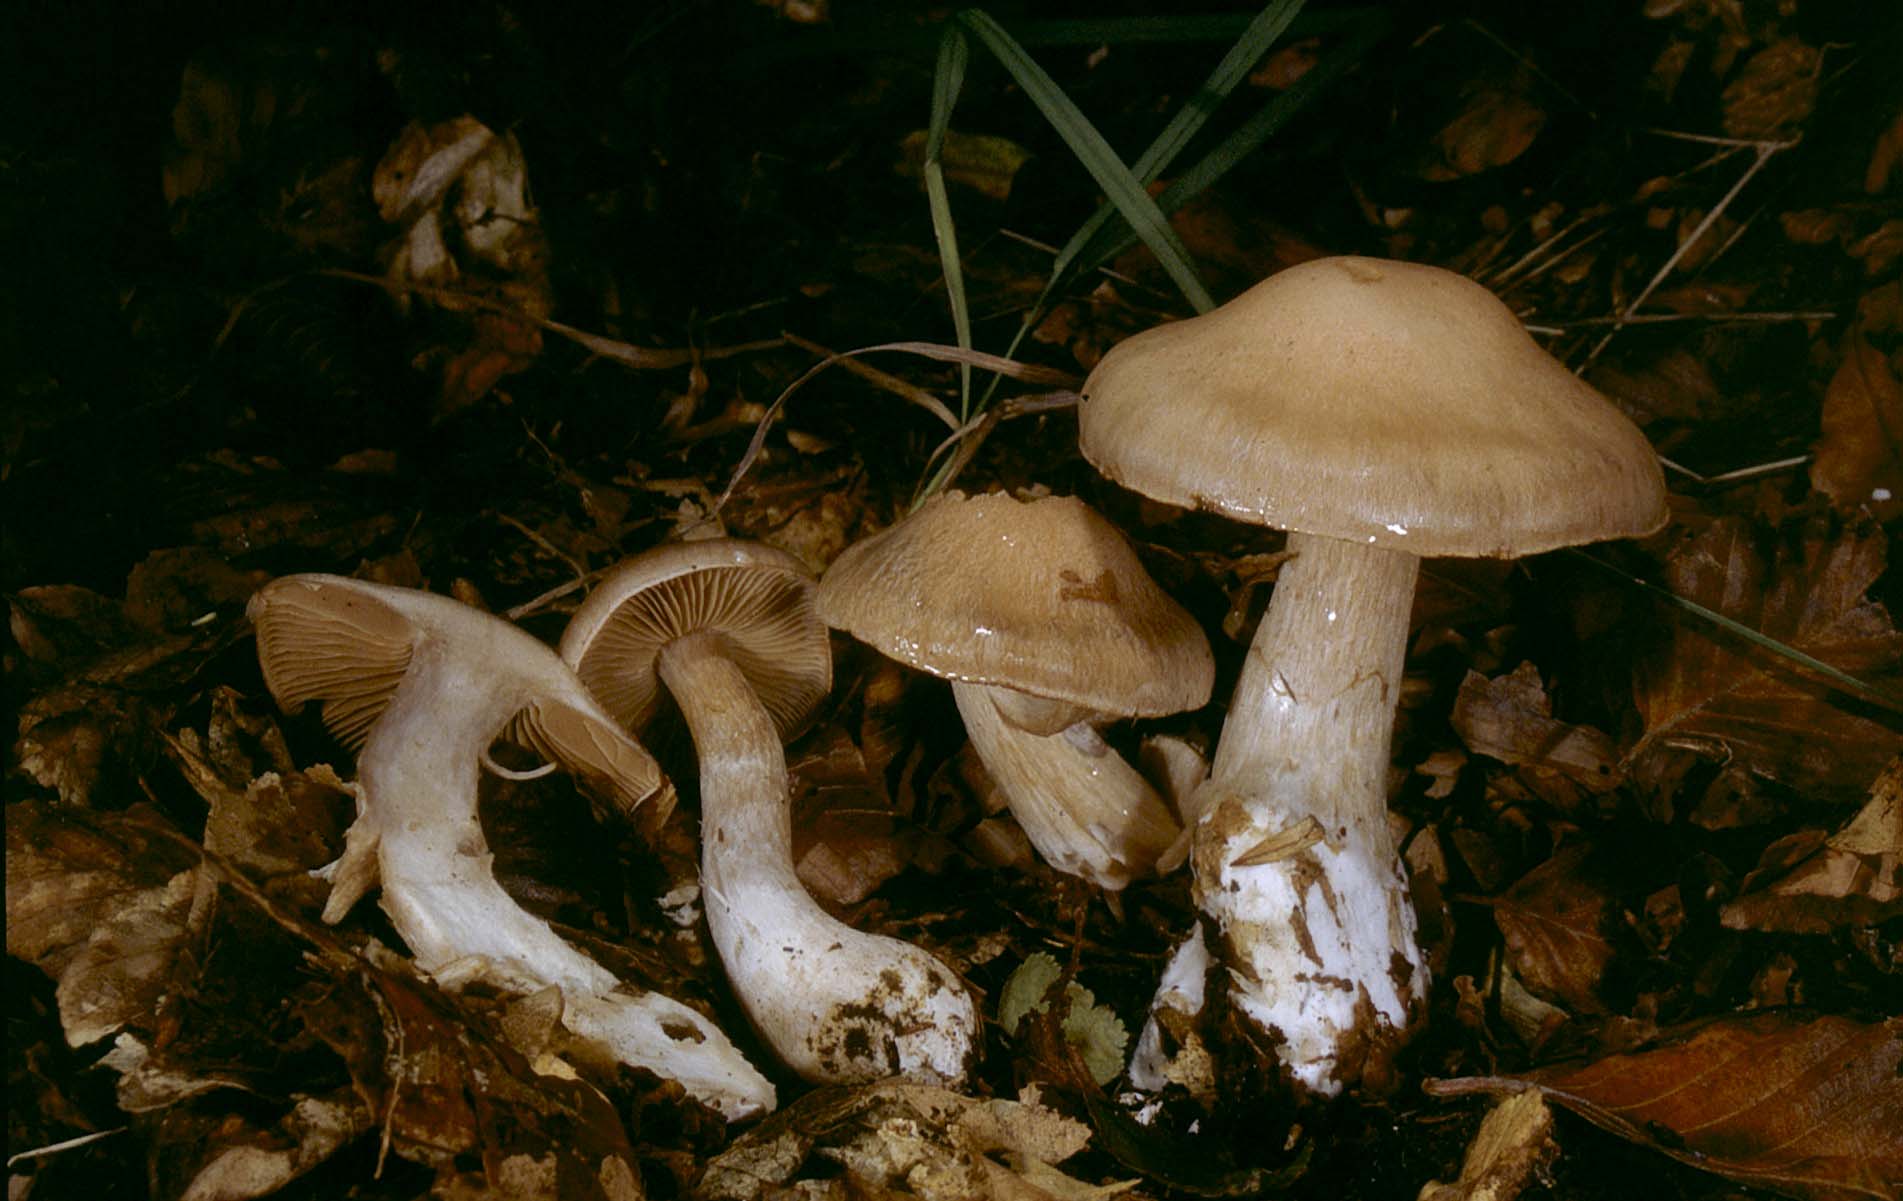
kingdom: Fungi
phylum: Basidiomycota
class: Agaricomycetes
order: Agaricales
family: Cortinariaceae
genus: Cortinarius
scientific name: Cortinarius turgidus
